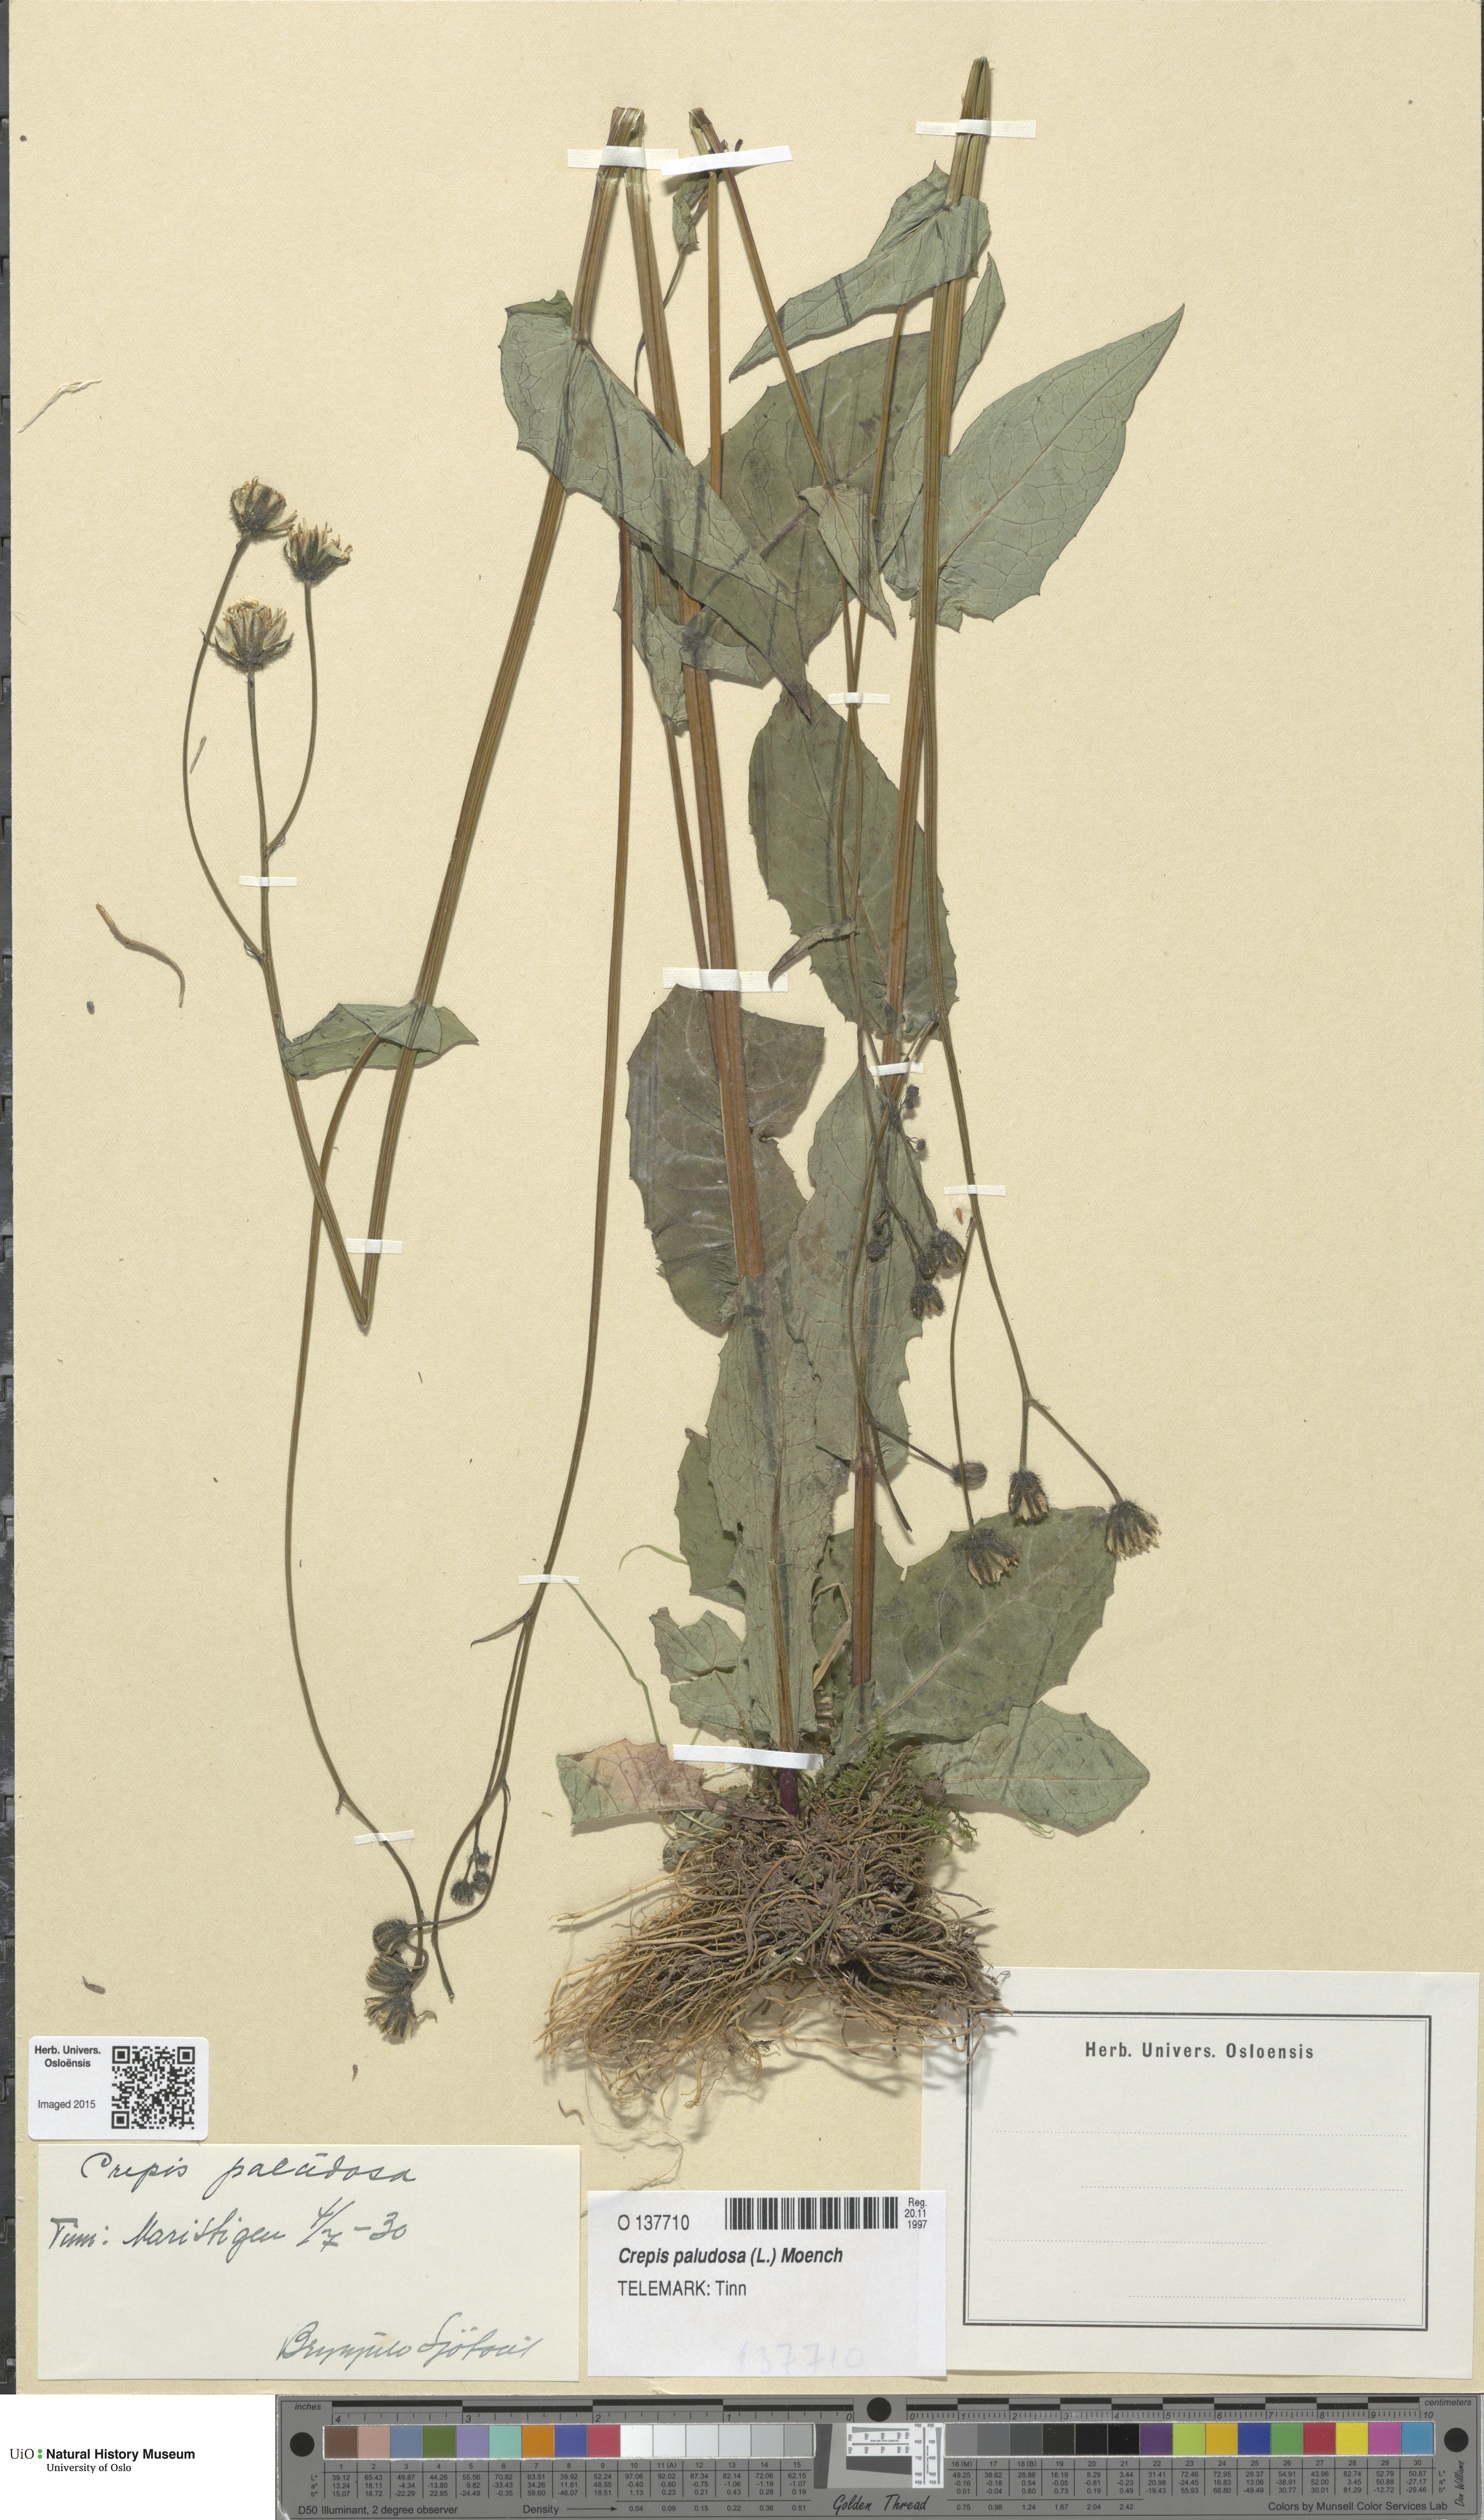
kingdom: Plantae
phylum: Tracheophyta
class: Magnoliopsida
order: Asterales
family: Asteraceae
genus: Crepis
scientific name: Crepis paludosa
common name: Marsh hawk's-beard
